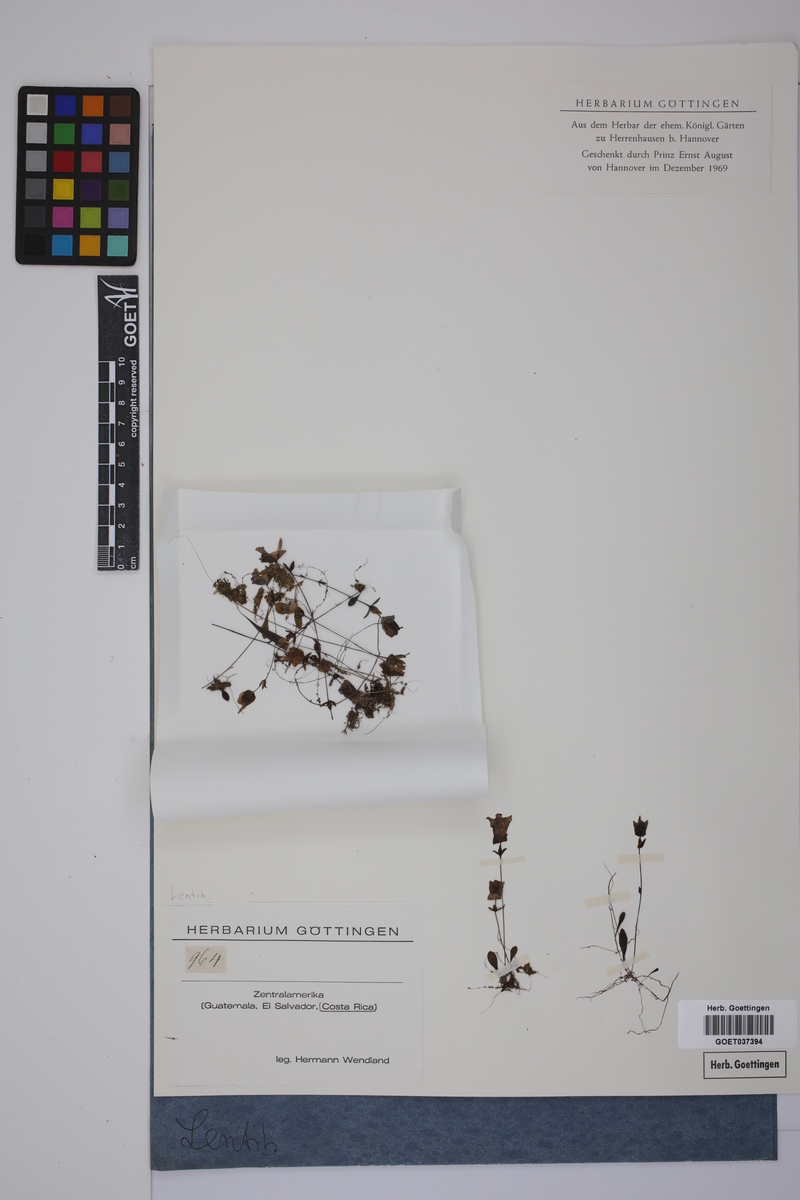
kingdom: Plantae
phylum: Tracheophyta
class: Magnoliopsida
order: Lamiales
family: Lentibulariaceae
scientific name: Lentibulariaceae
